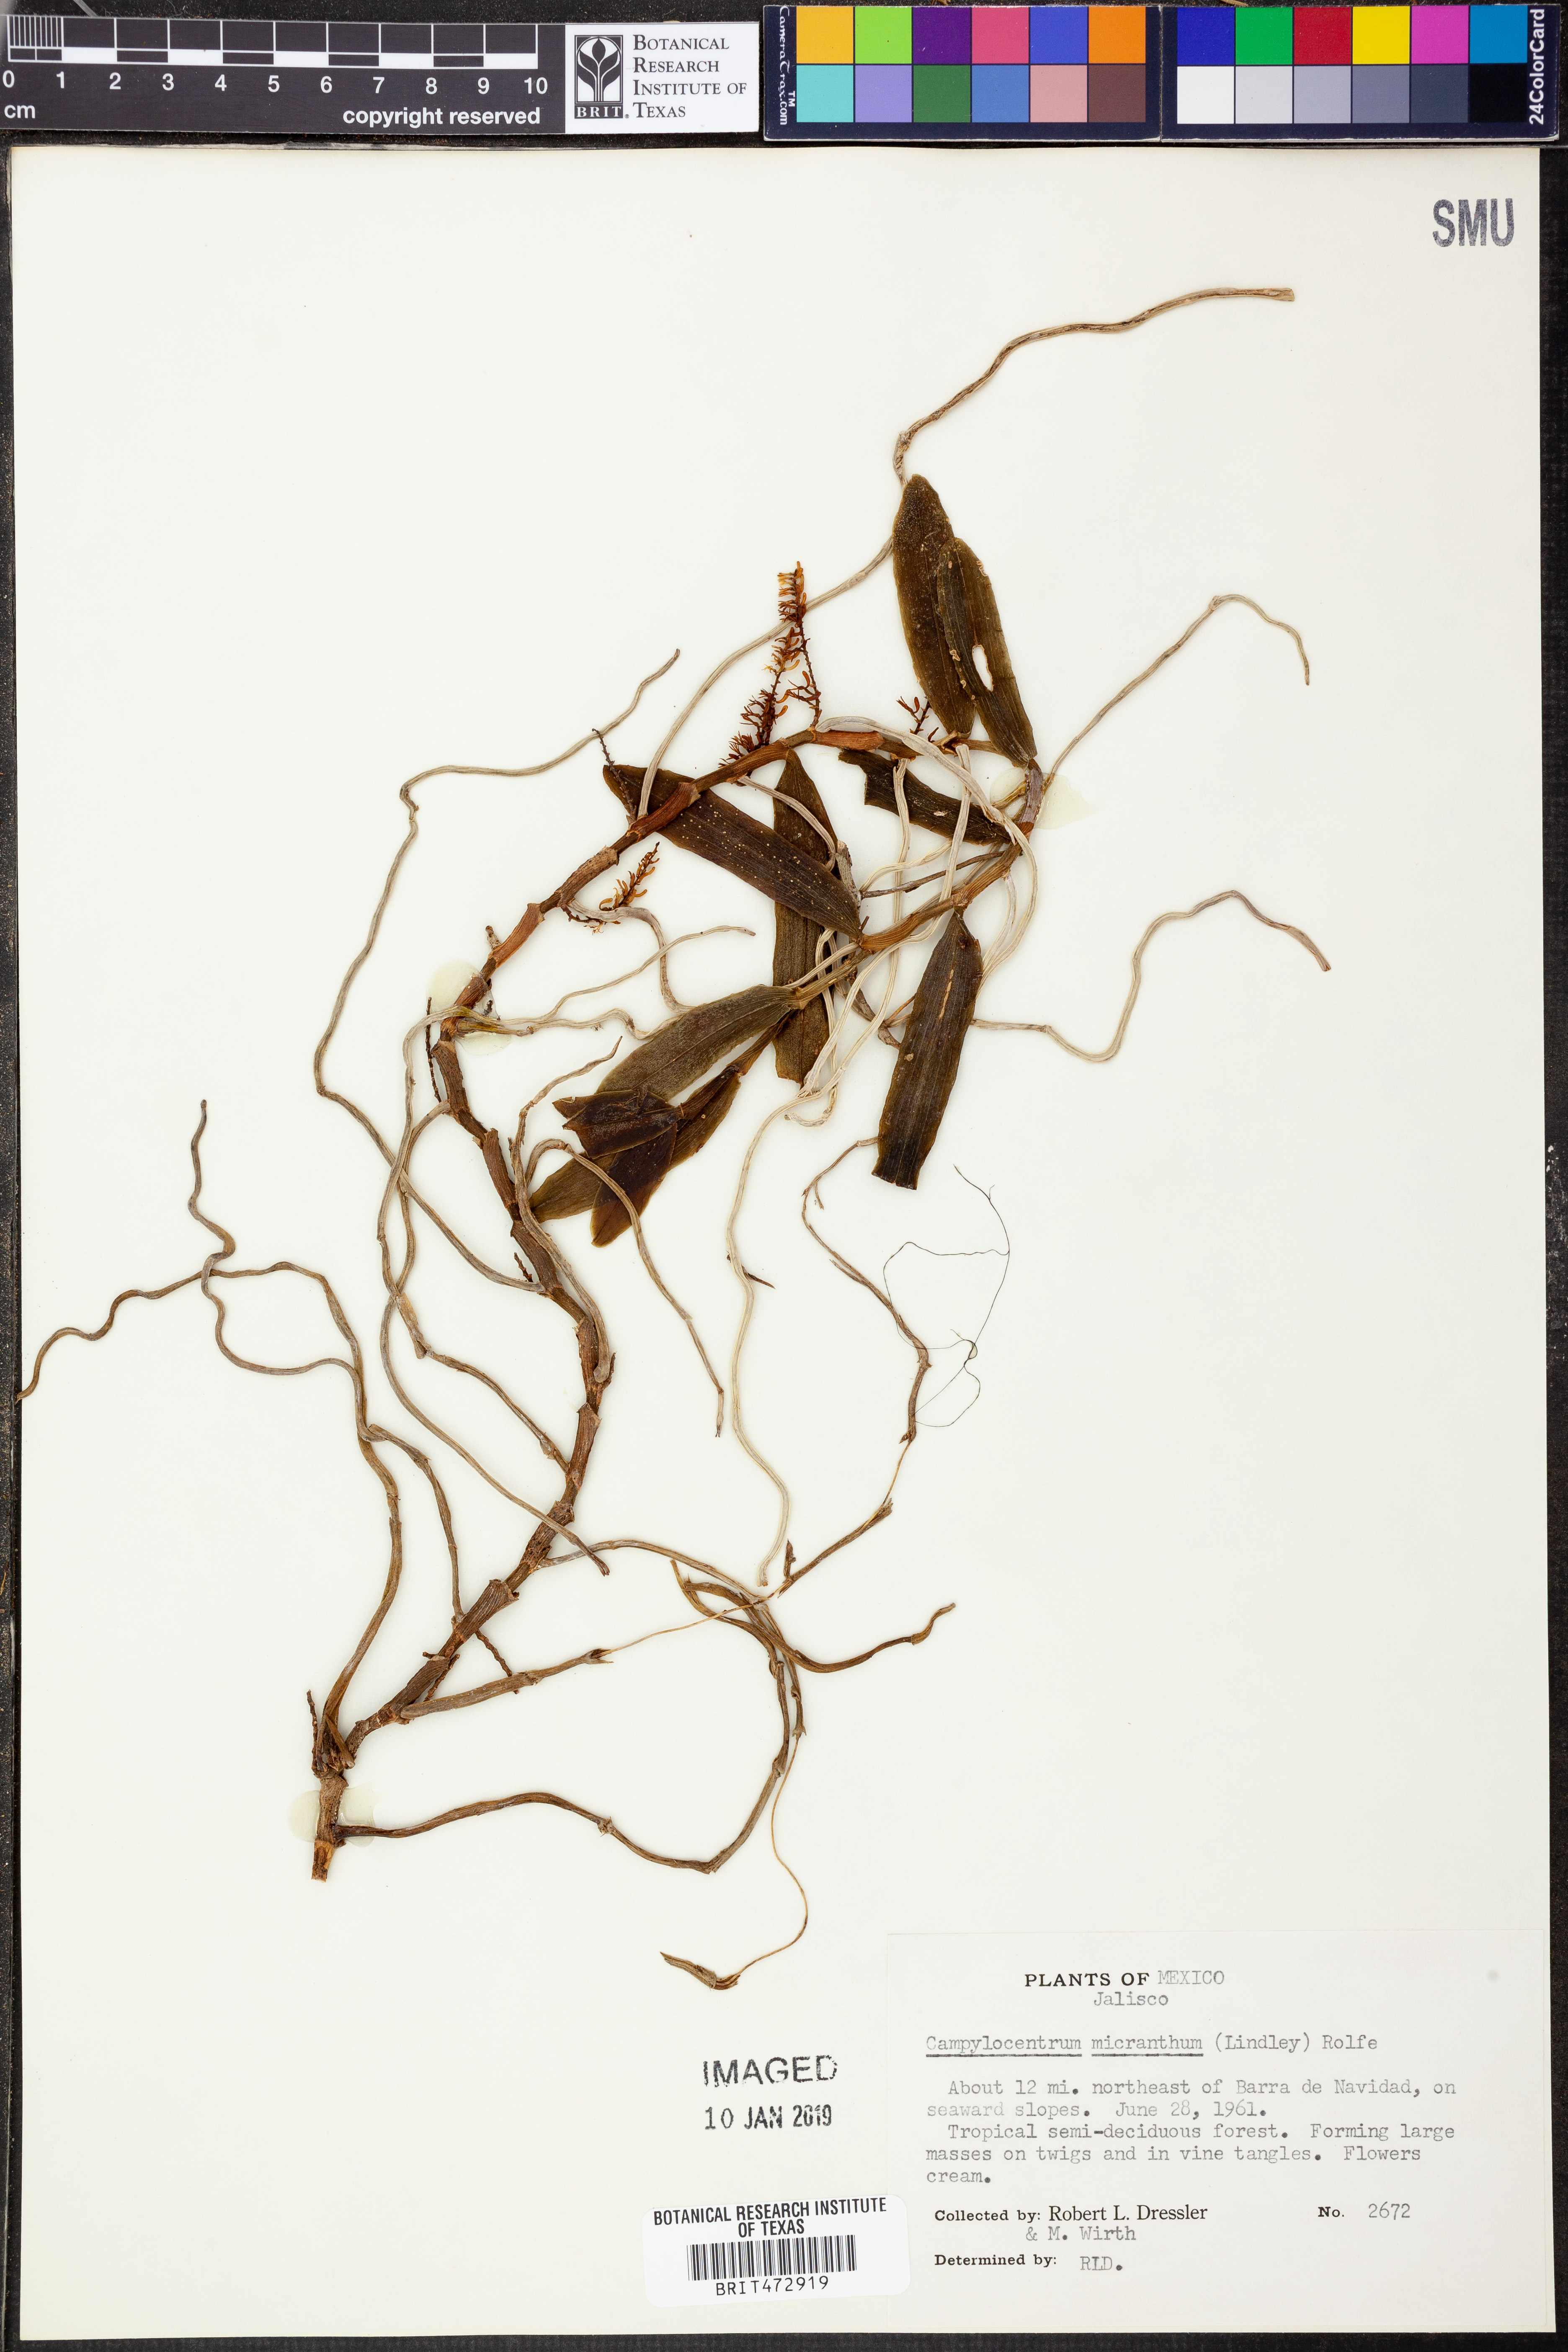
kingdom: Plantae
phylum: Tracheophyta
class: Liliopsida
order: Asparagales
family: Orchidaceae
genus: Campylocentrum
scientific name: Campylocentrum micranthum
